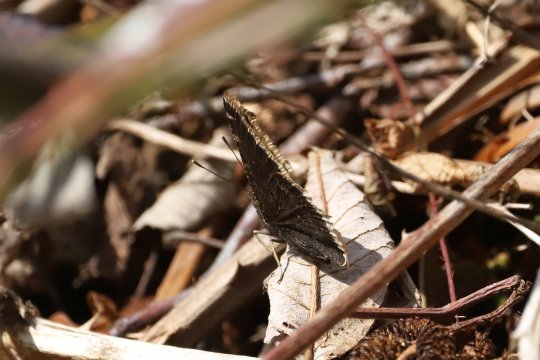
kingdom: Animalia
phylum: Arthropoda
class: Insecta
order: Lepidoptera
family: Nymphalidae
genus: Nymphalis
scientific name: Nymphalis antiopa
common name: Mourning Cloak
